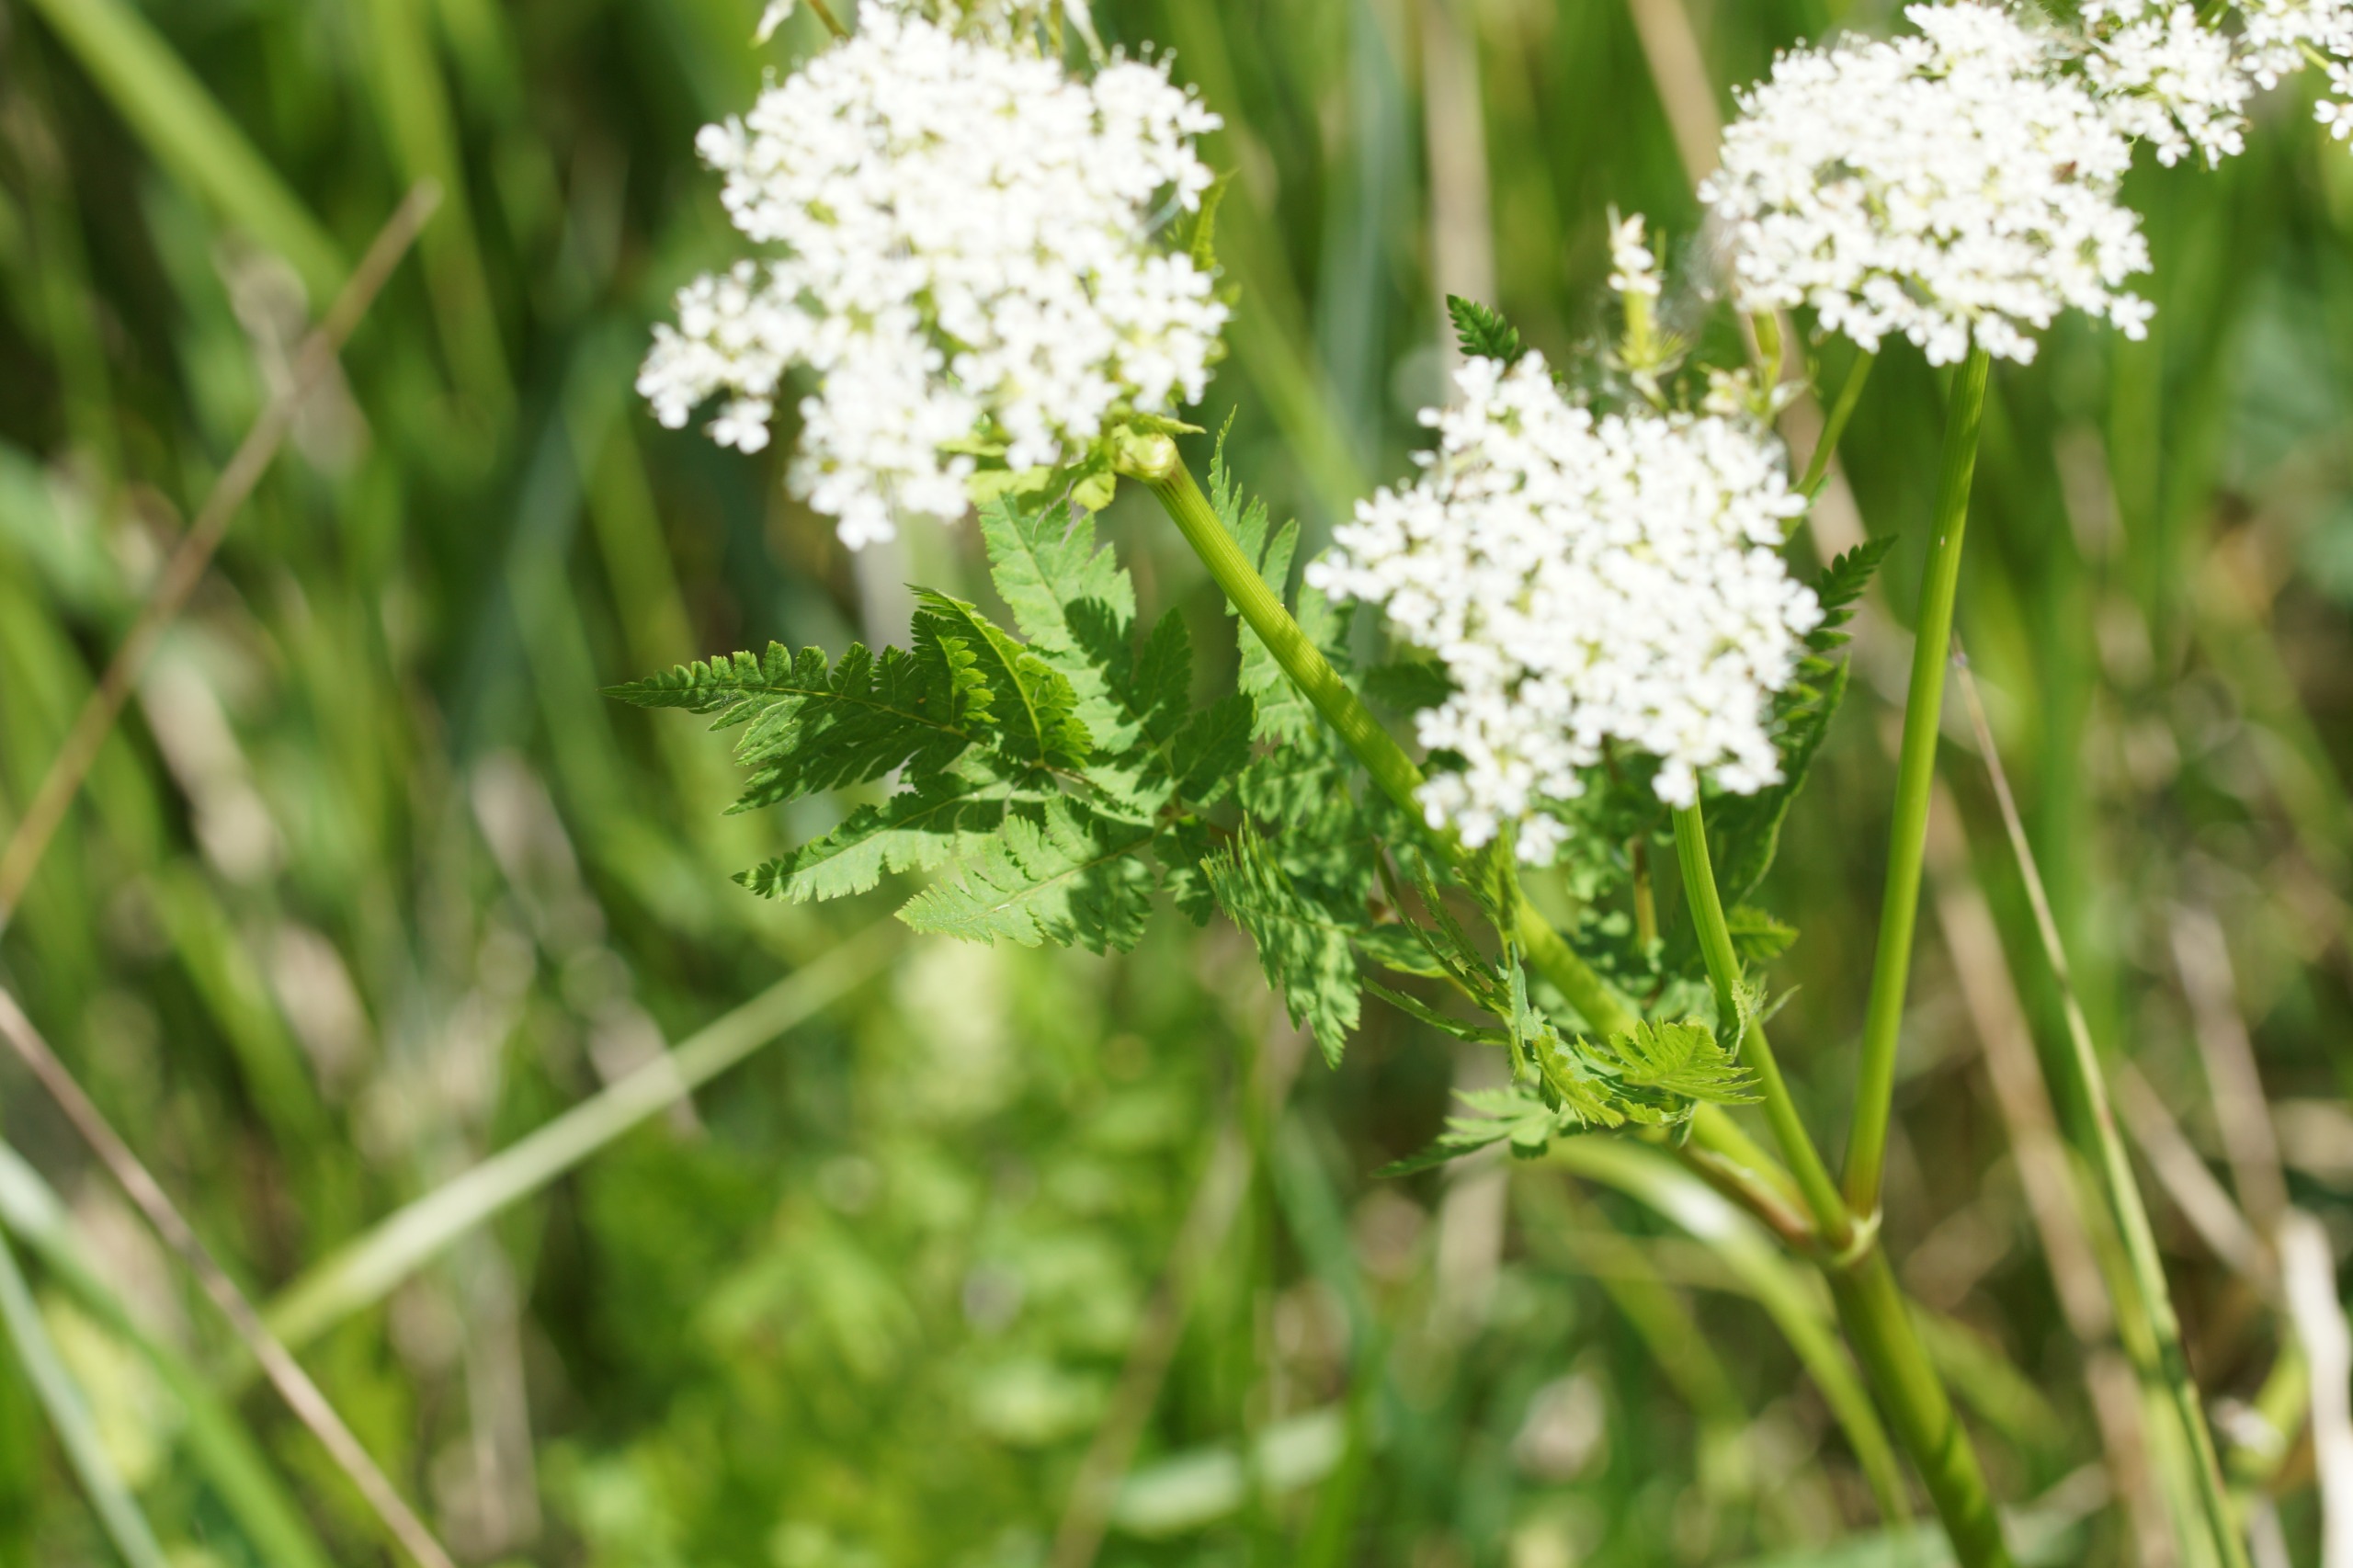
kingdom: Plantae
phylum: Tracheophyta
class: Magnoliopsida
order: Apiales
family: Apiaceae
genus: Myrrhis
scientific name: Myrrhis odorata
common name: Sødskærm
